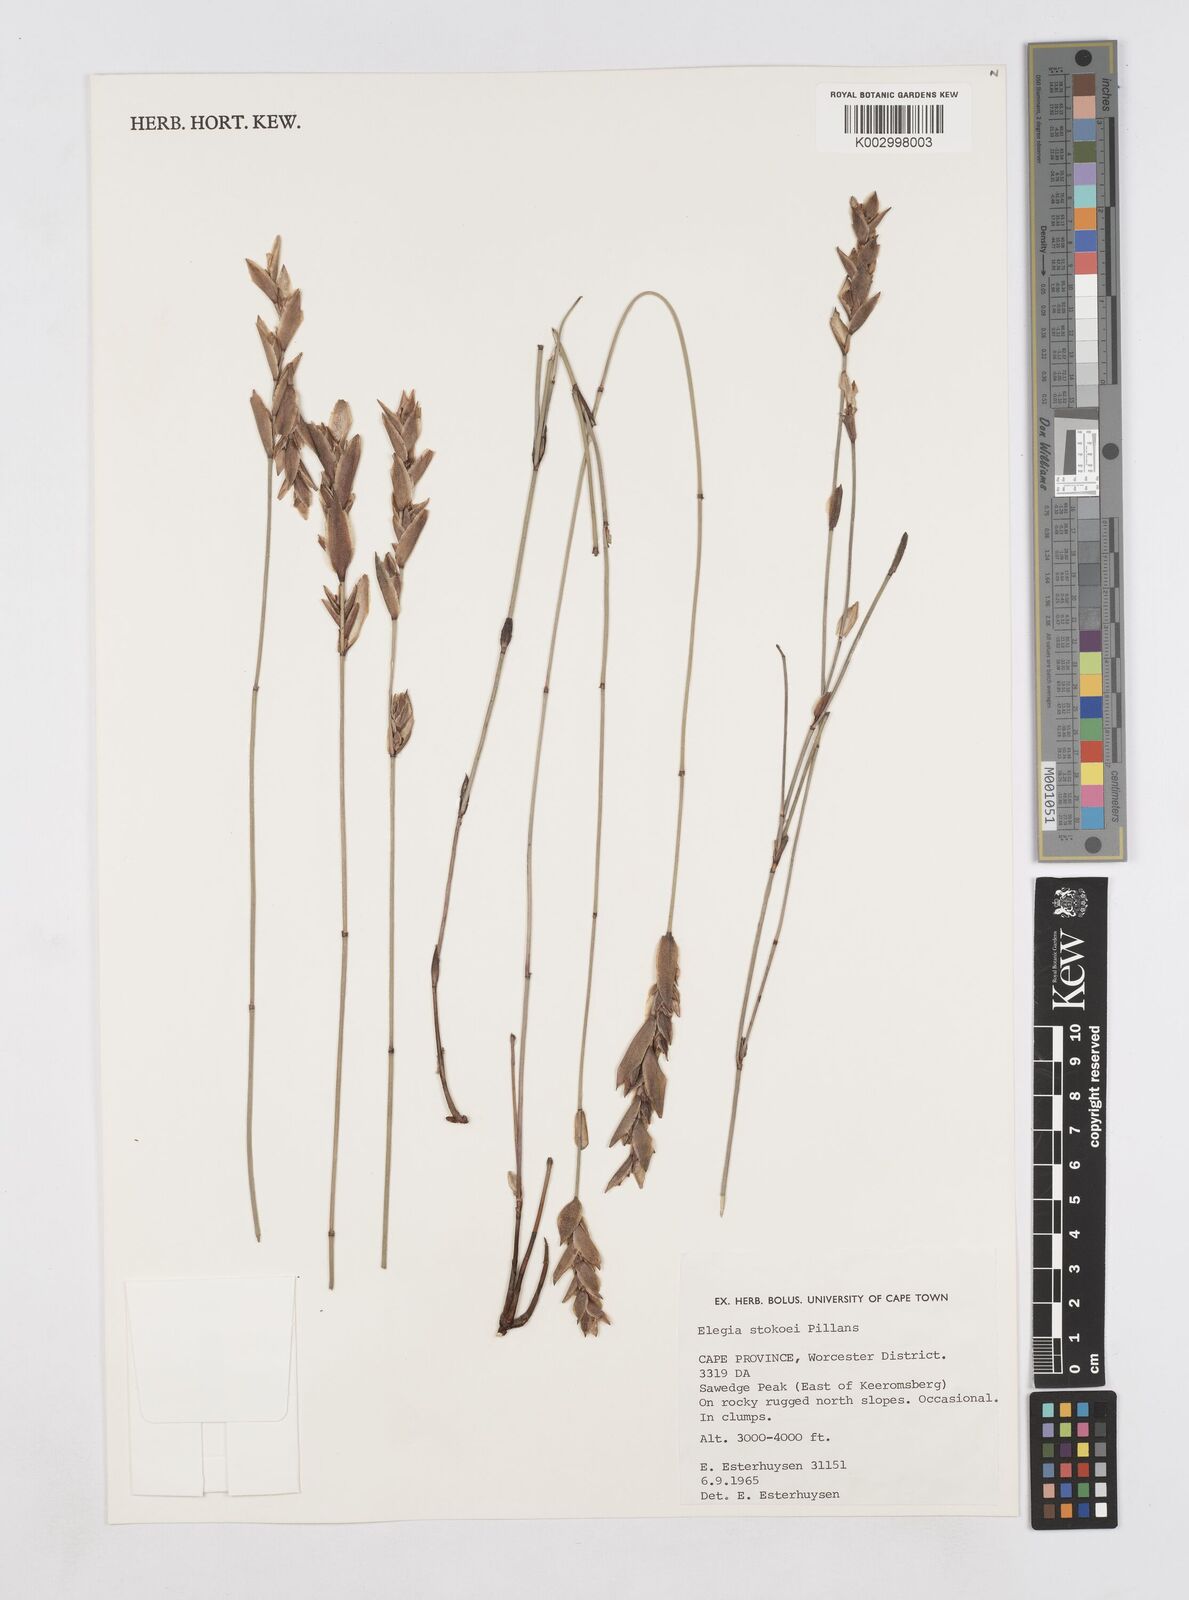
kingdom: Plantae
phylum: Tracheophyta
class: Liliopsida
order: Poales
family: Restionaceae
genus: Elegia
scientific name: Elegia stokoei
